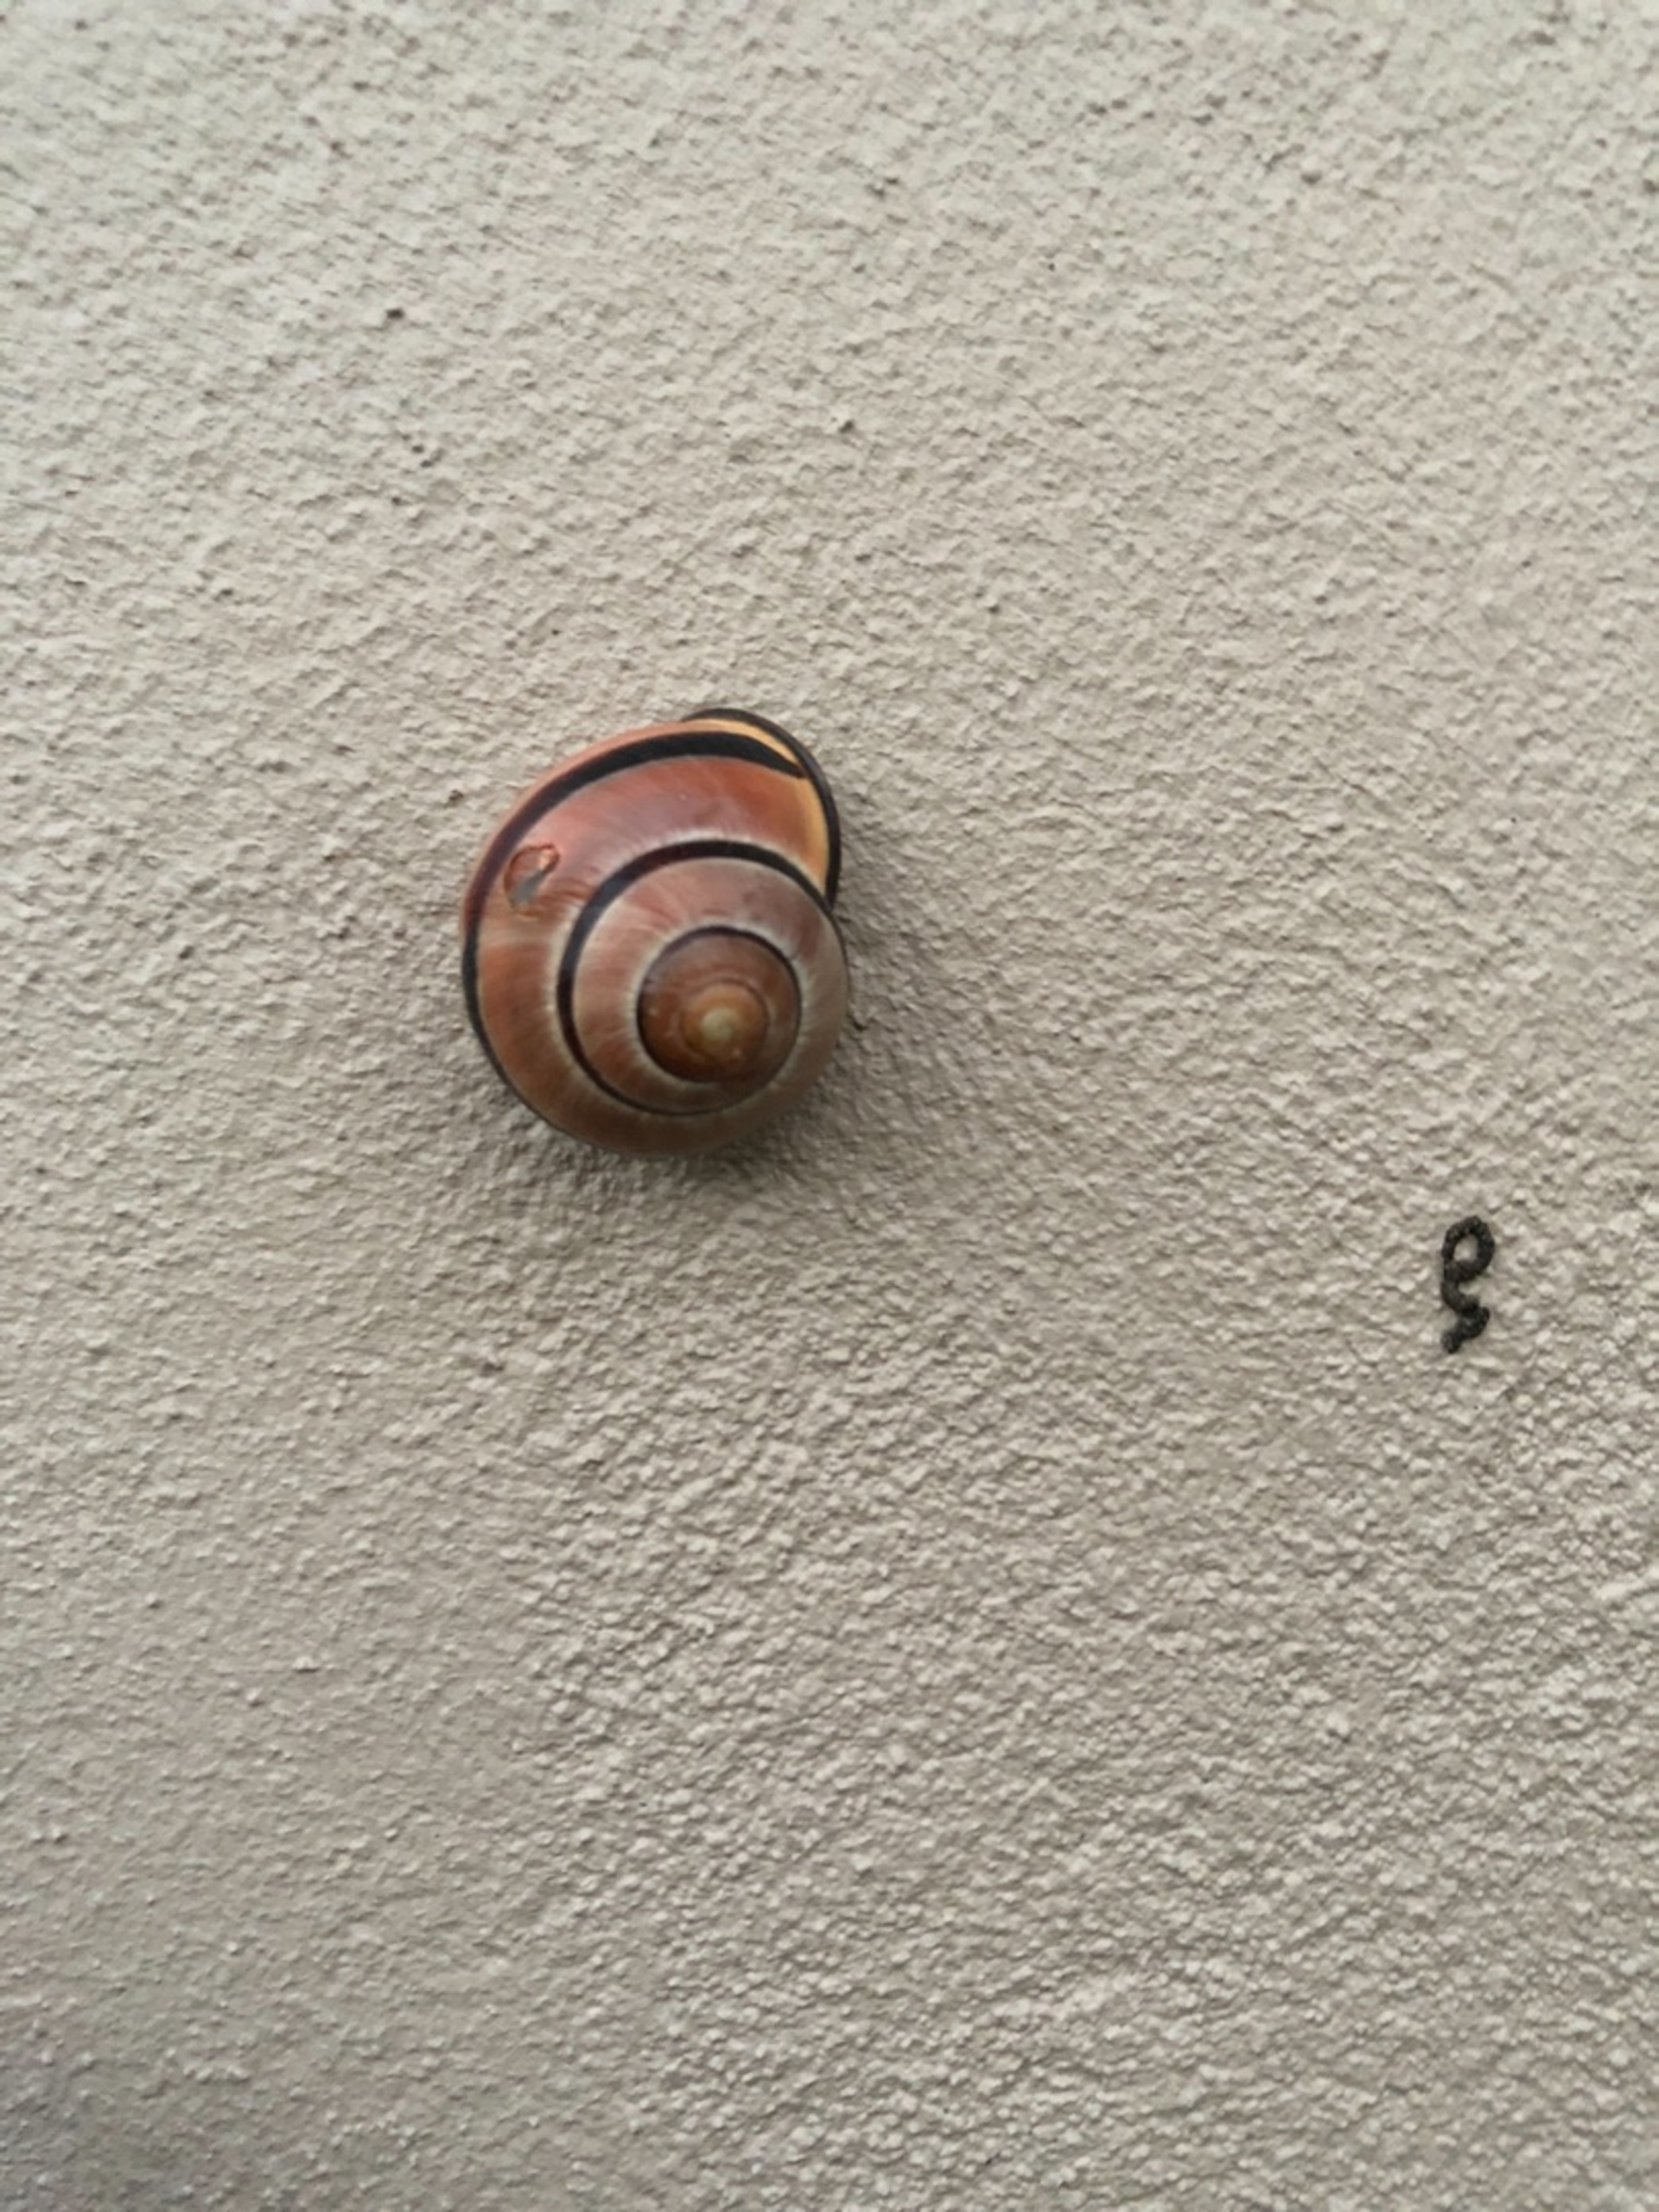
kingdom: Animalia
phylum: Mollusca
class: Gastropoda
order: Stylommatophora
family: Helicidae
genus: Cepaea
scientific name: Cepaea nemoralis
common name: Lundsnegl
